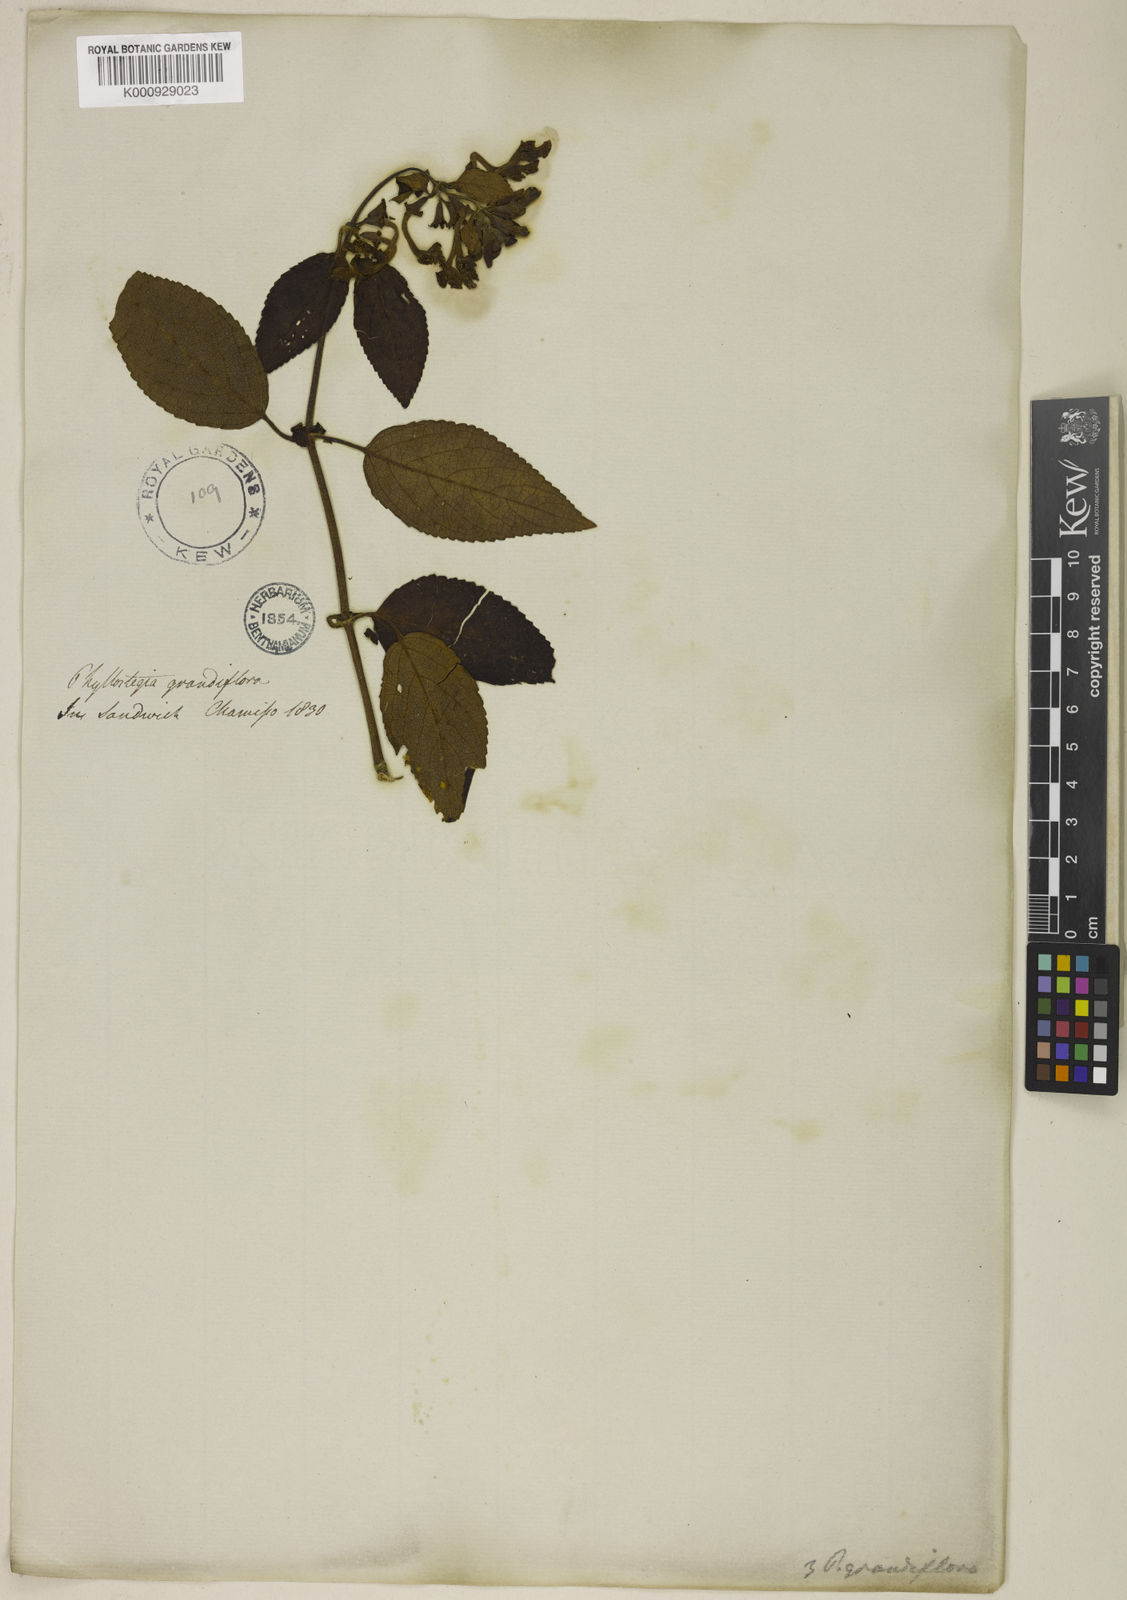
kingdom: Plantae
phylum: Tracheophyta
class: Magnoliopsida
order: Lamiales
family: Lamiaceae
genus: Phyllostegia
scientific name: Phyllostegia grandiflora
